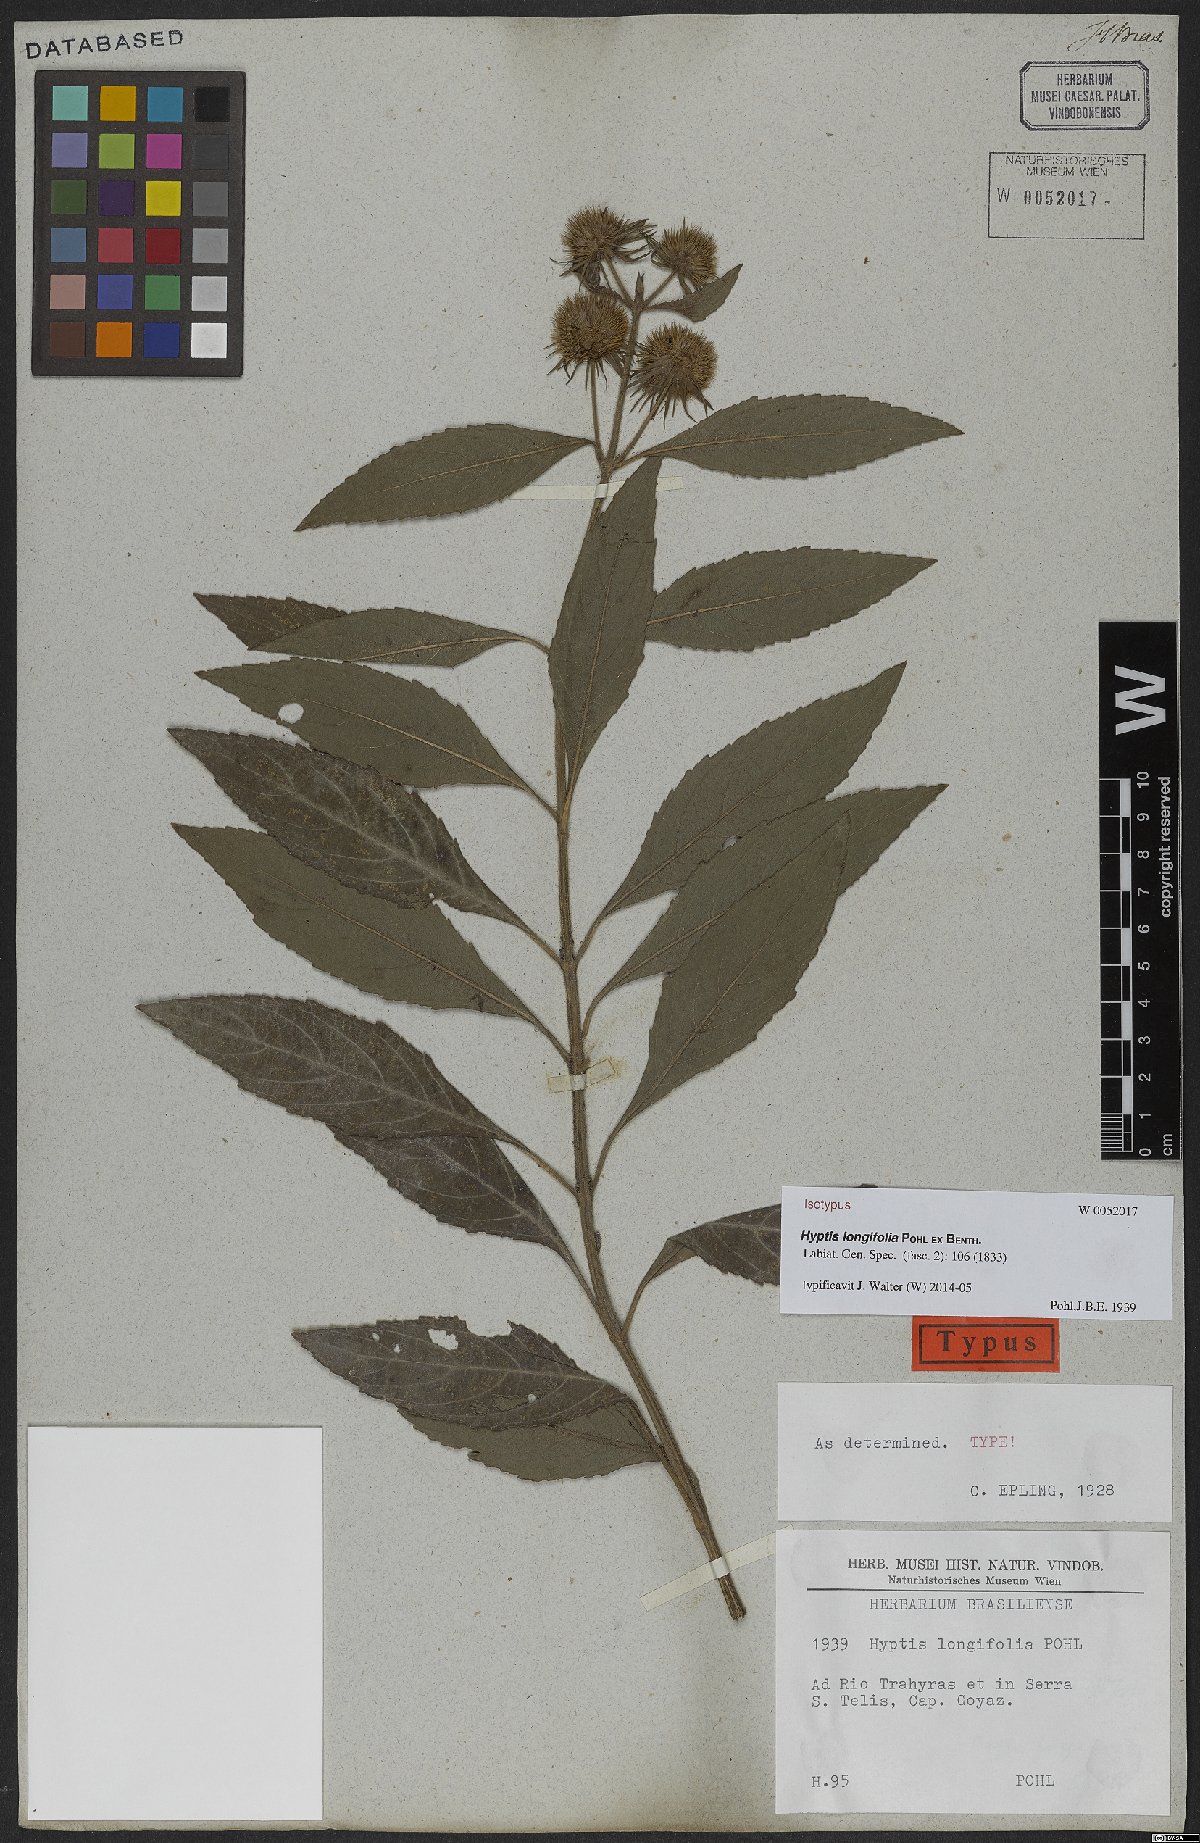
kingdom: Plantae
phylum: Tracheophyta
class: Magnoliopsida
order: Lamiales
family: Lamiaceae
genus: Hyptis
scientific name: Hyptis longifolia
